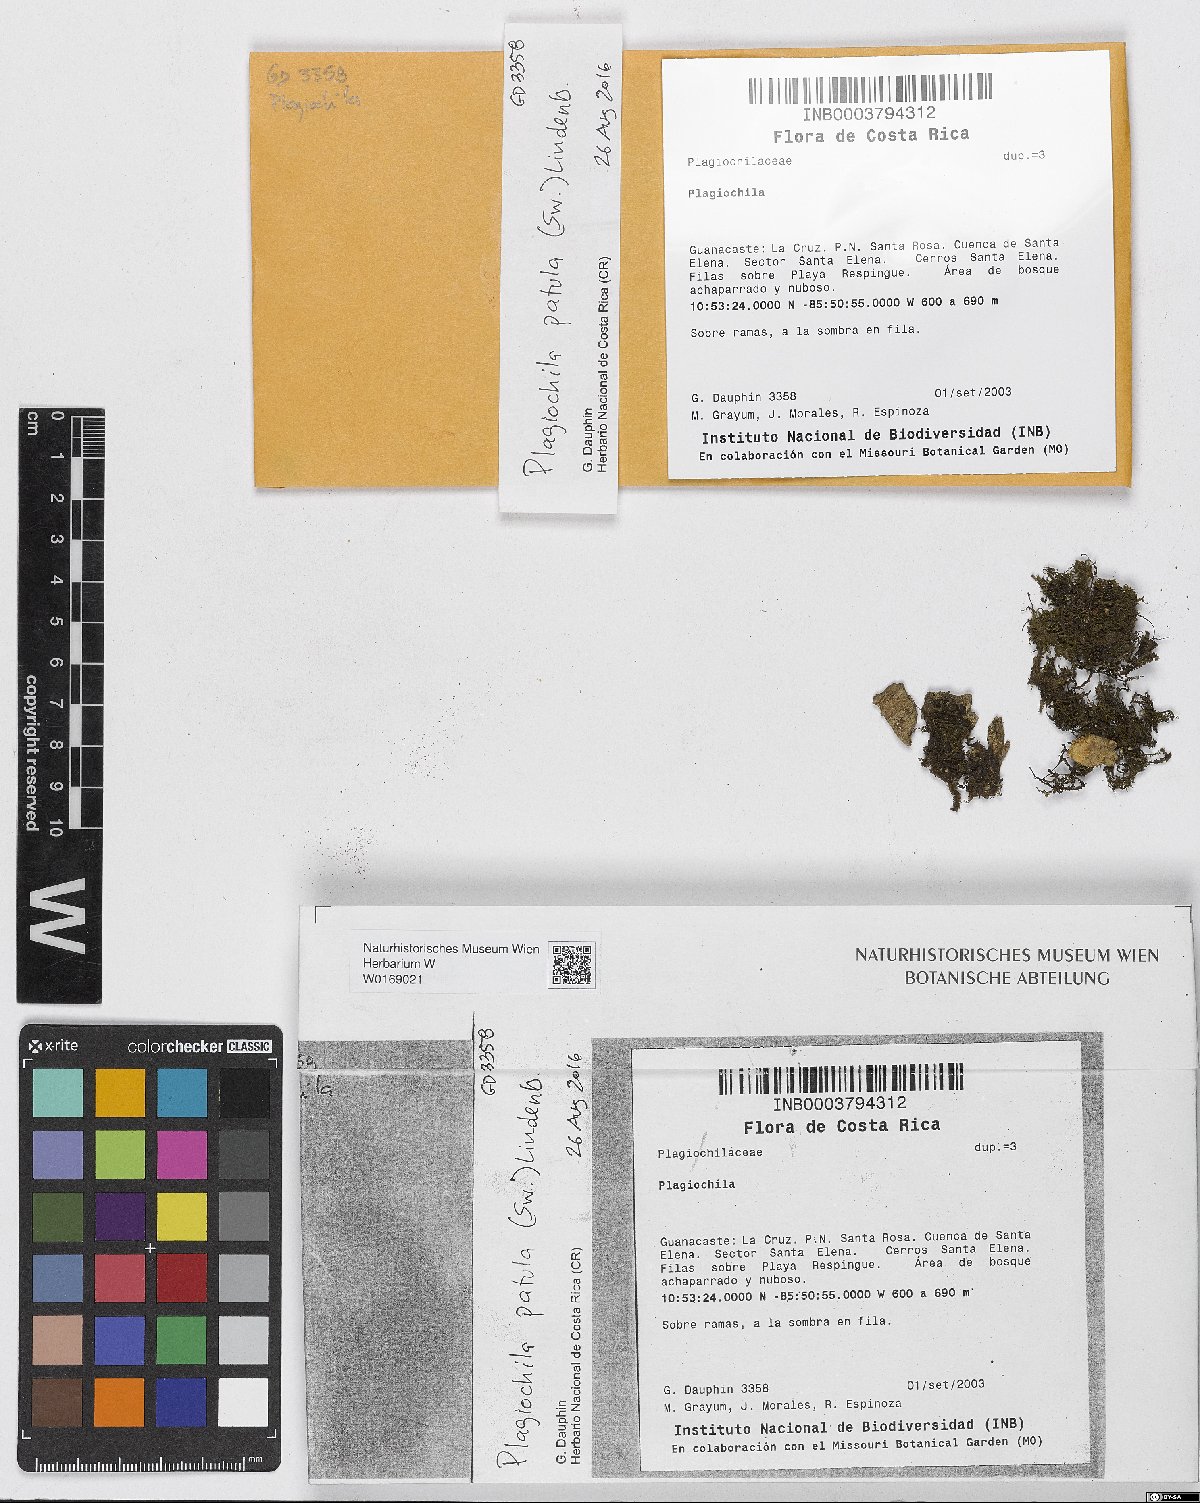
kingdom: Plantae
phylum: Marchantiophyta
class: Jungermanniopsida
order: Jungermanniales
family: Plagiochilaceae
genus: Plagiochila
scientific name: Plagiochila patula
